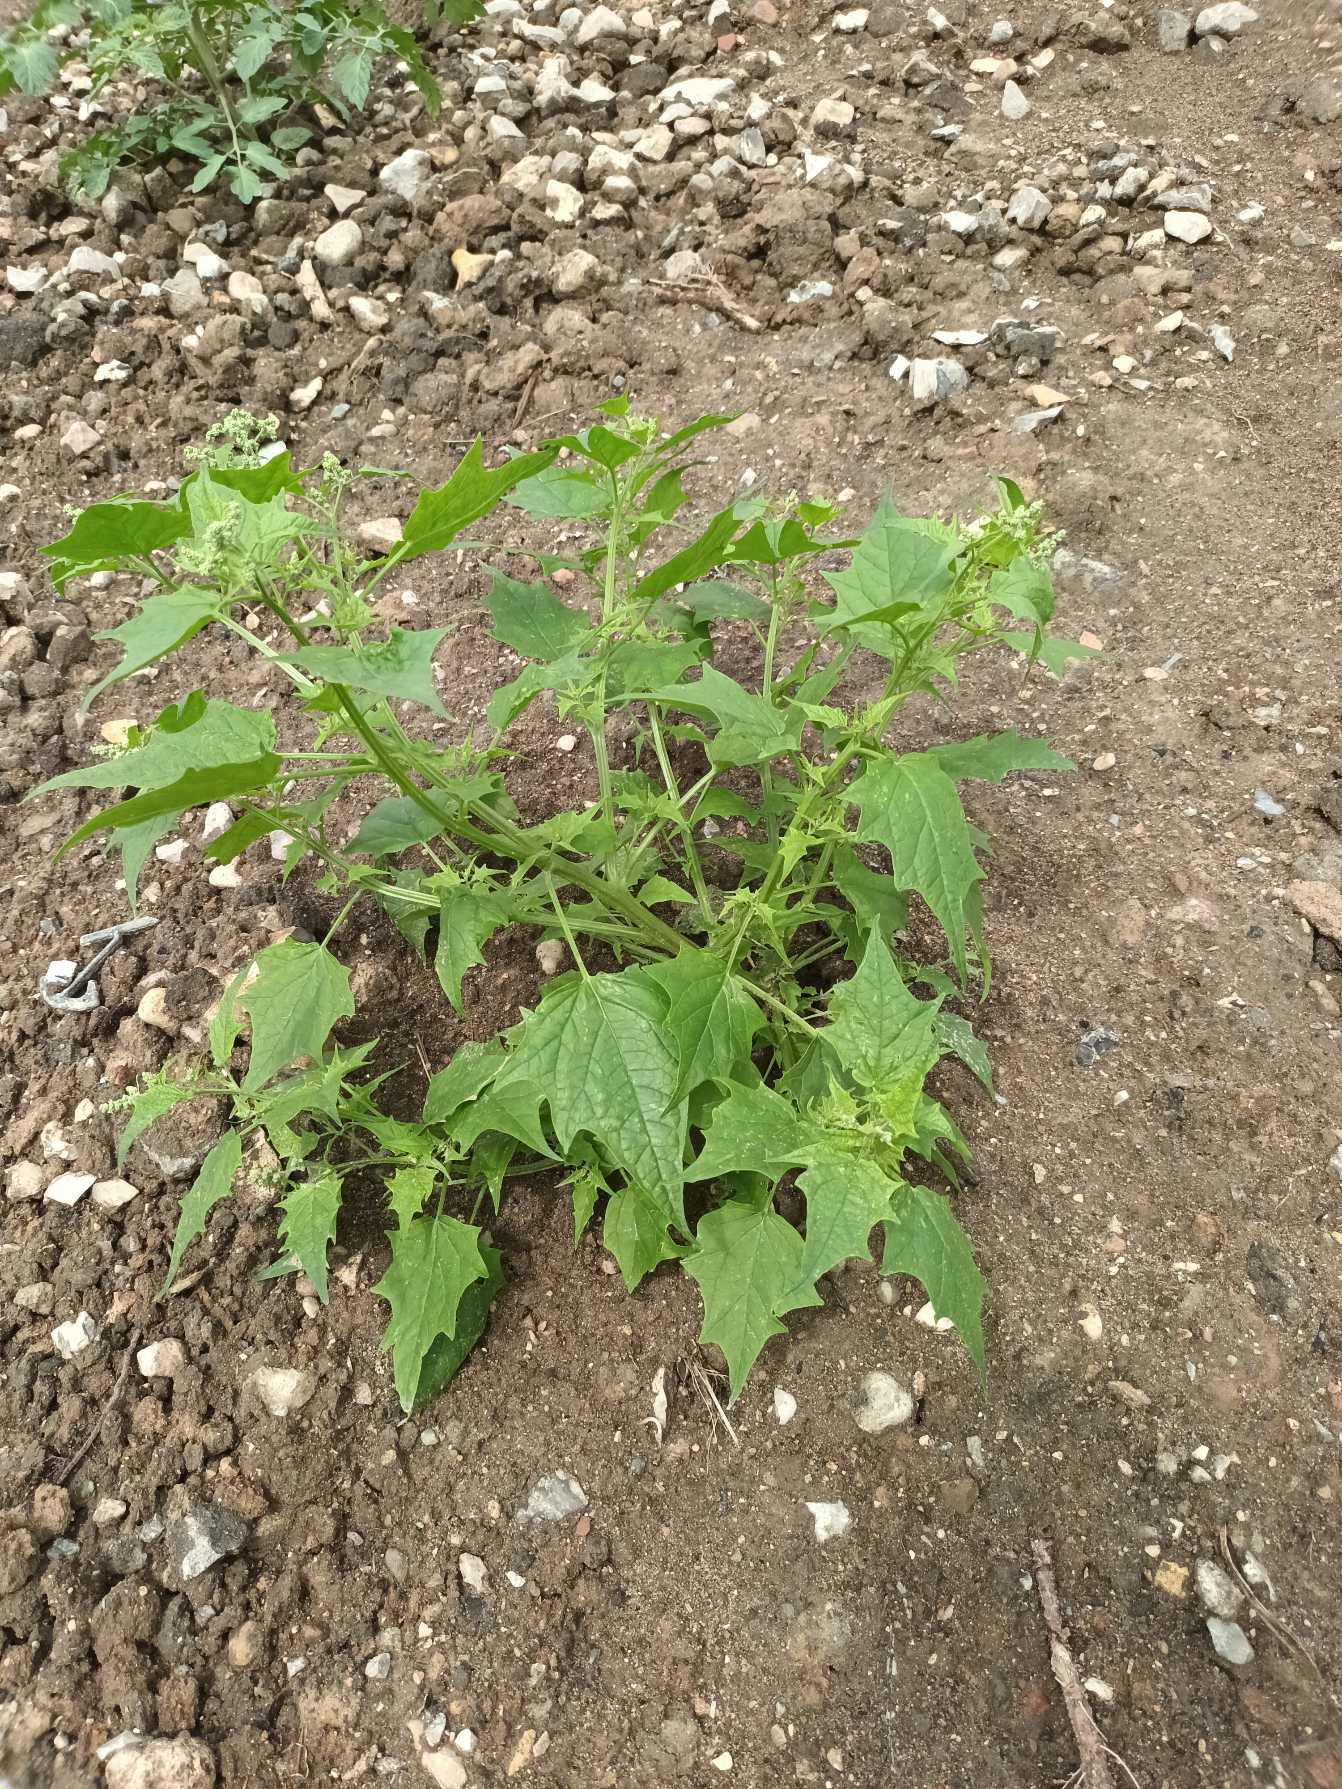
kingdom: Plantae
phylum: Tracheophyta
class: Magnoliopsida
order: Caryophyllales
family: Amaranthaceae
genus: Chenopodiastrum
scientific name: Chenopodiastrum hybridum
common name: Hjertebladet gåsefod
